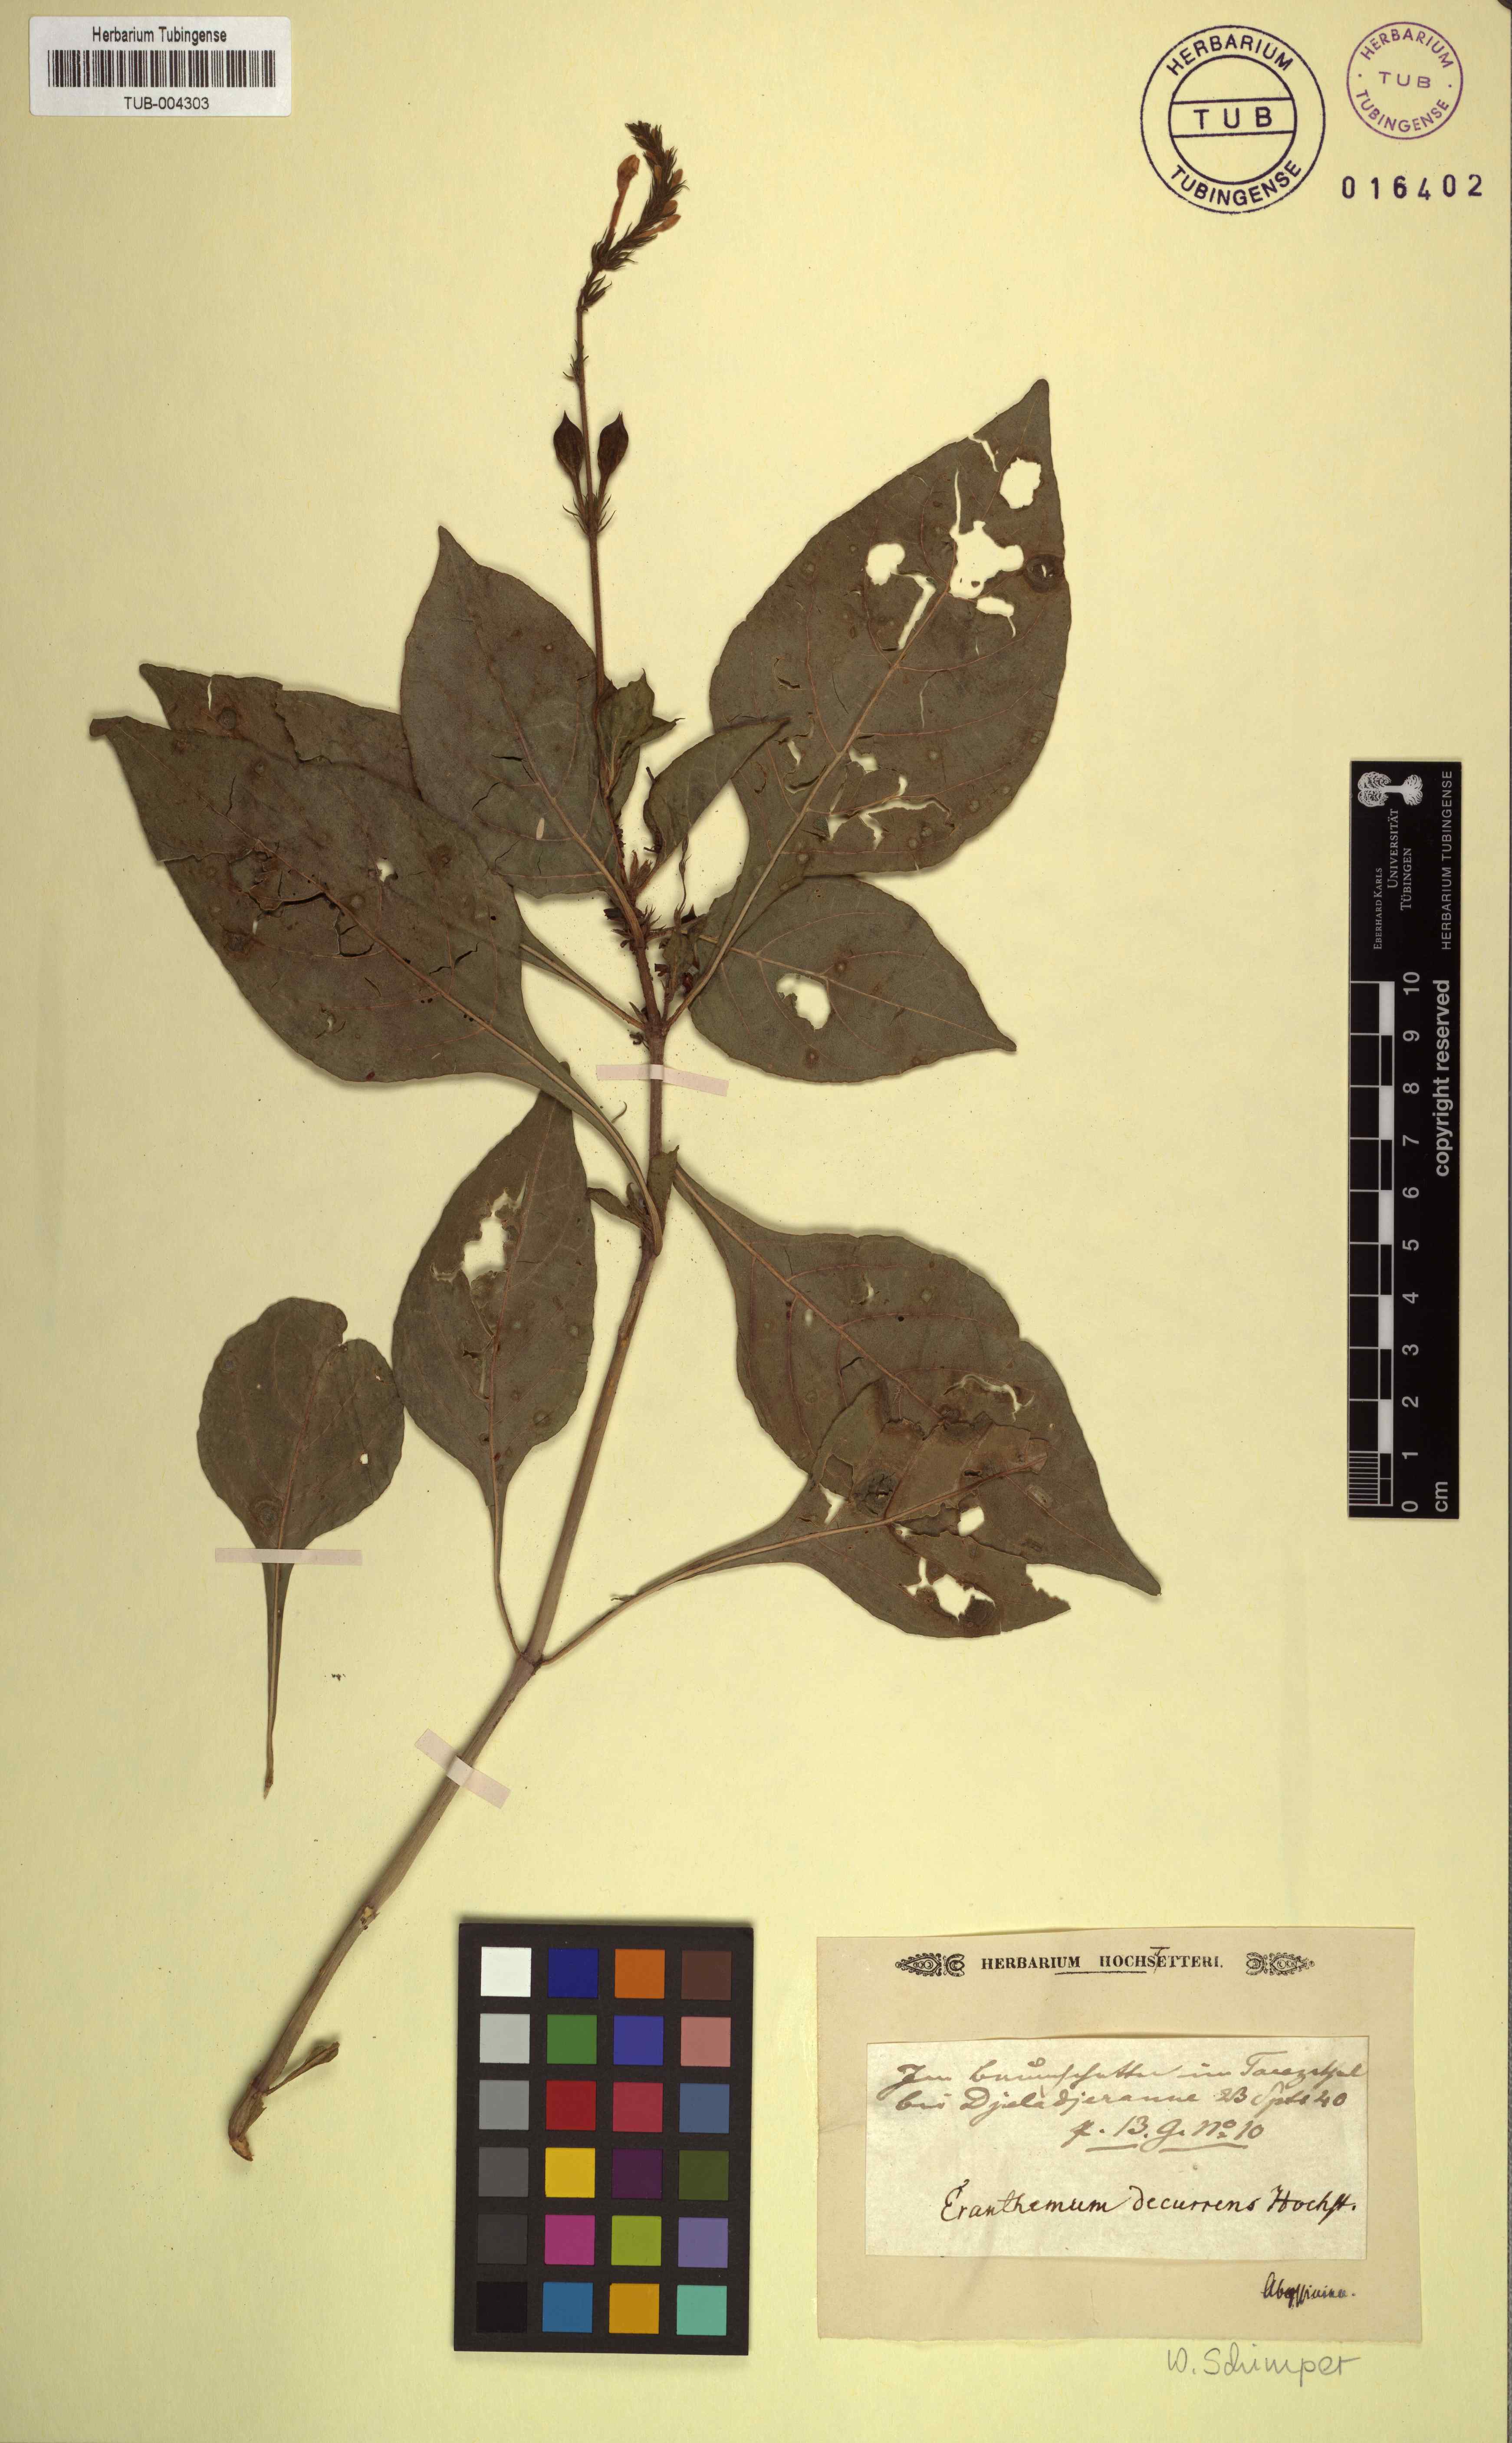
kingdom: Plantae
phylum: Tracheophyta
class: Magnoliopsida
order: Lamiales
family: Acanthaceae
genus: Ruspolia
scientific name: Ruspolia decurrens
